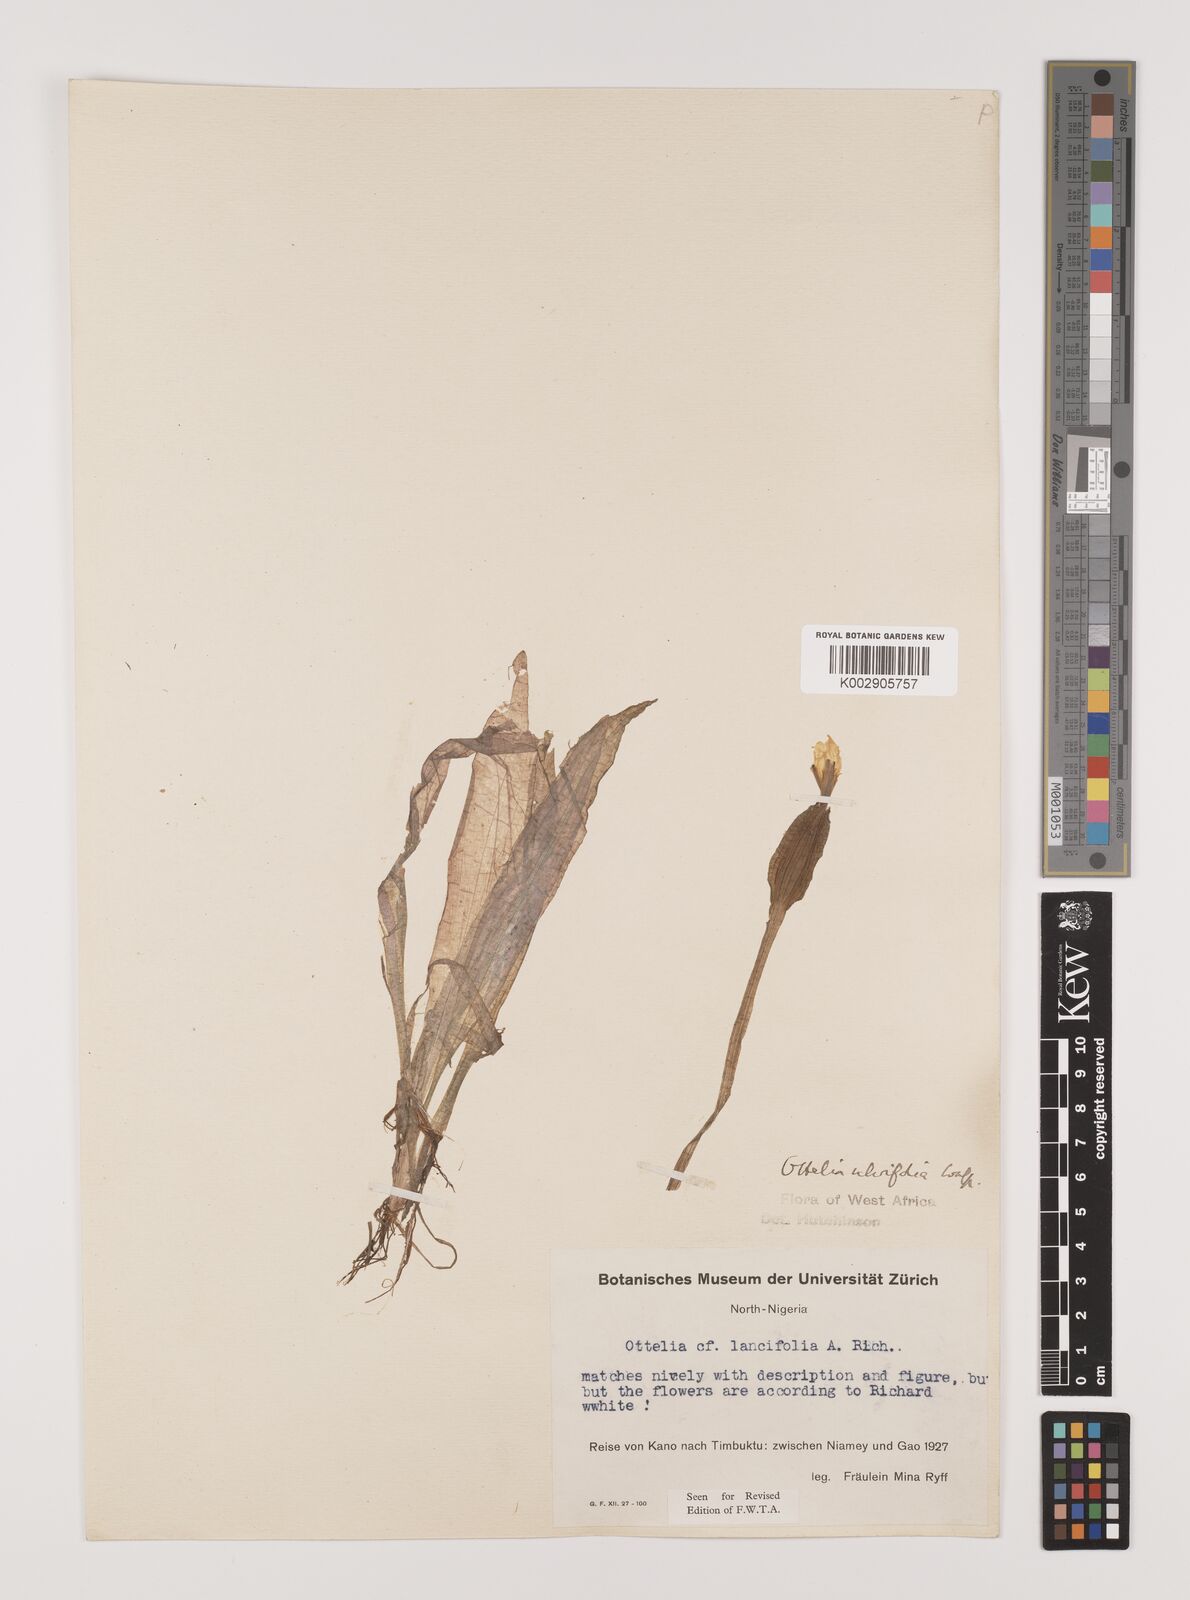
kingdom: Plantae
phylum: Tracheophyta
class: Liliopsida
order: Alismatales
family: Hydrocharitaceae
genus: Ottelia
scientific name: Ottelia ulvifolia
